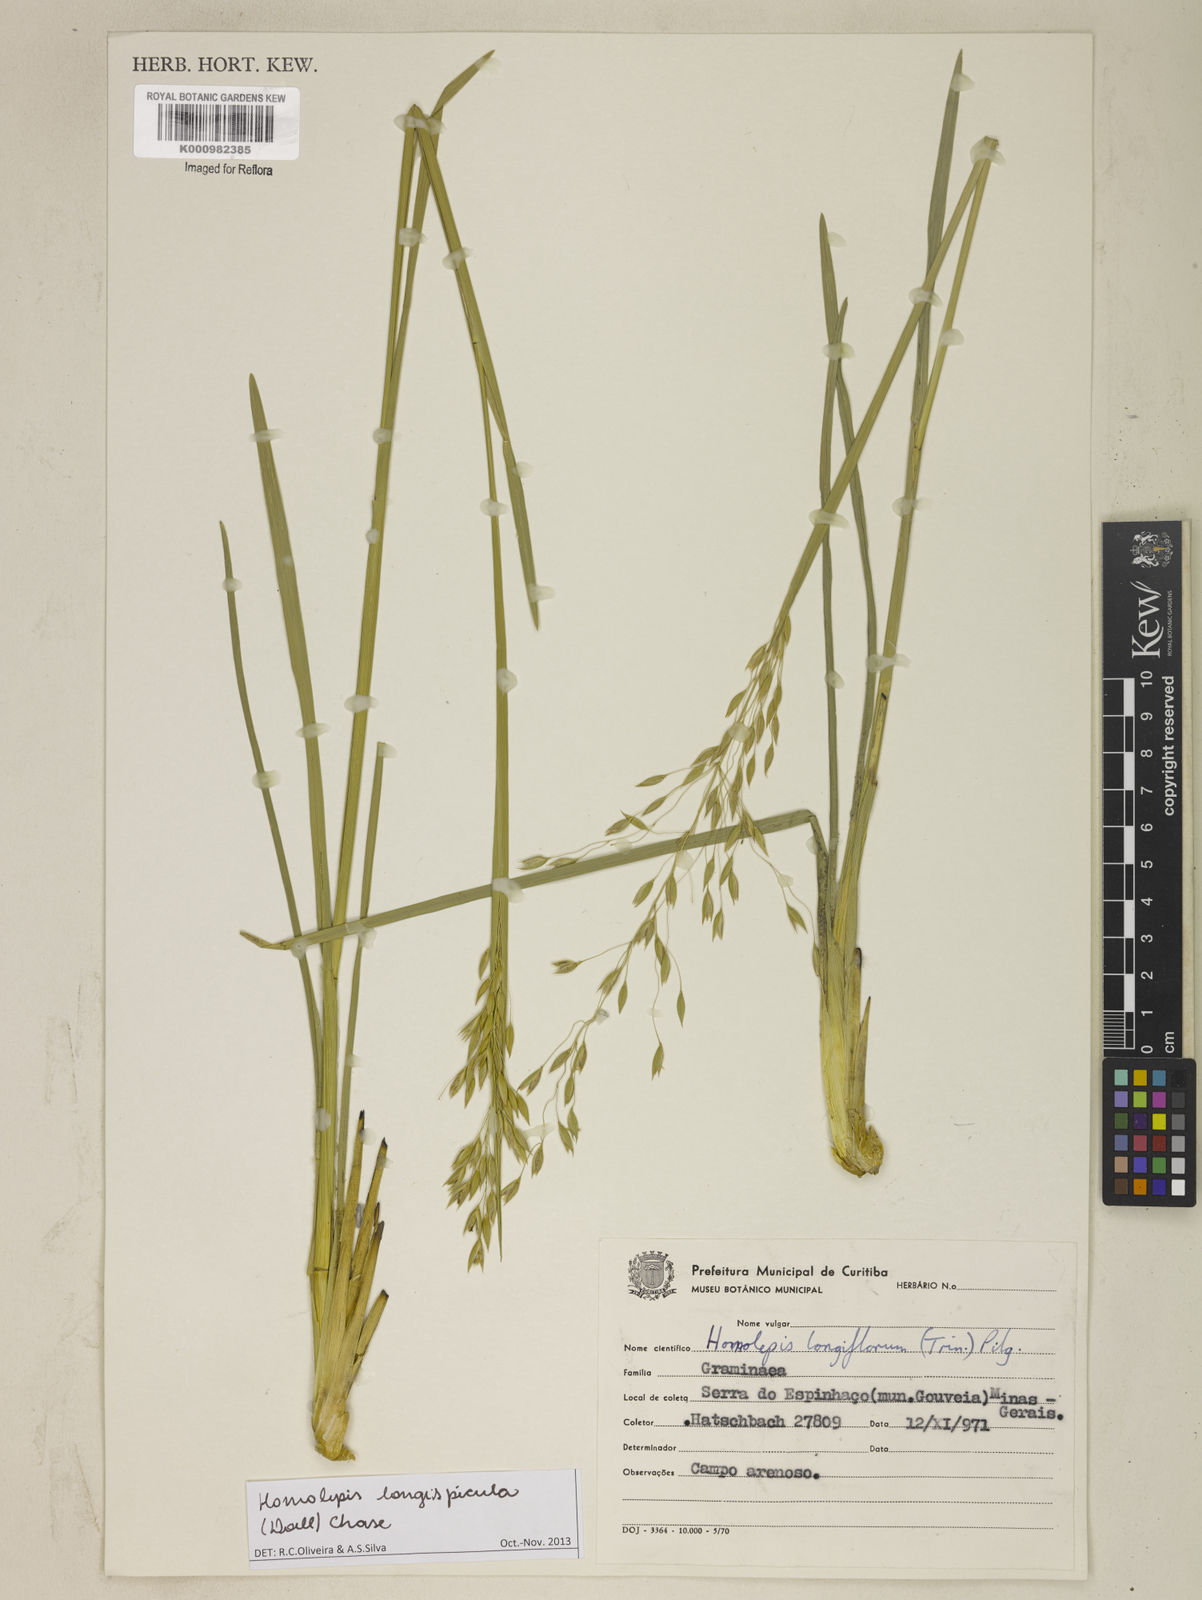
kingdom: Plantae
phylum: Tracheophyta
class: Liliopsida
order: Poales
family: Poaceae
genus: Homolepis
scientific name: Homolepis
